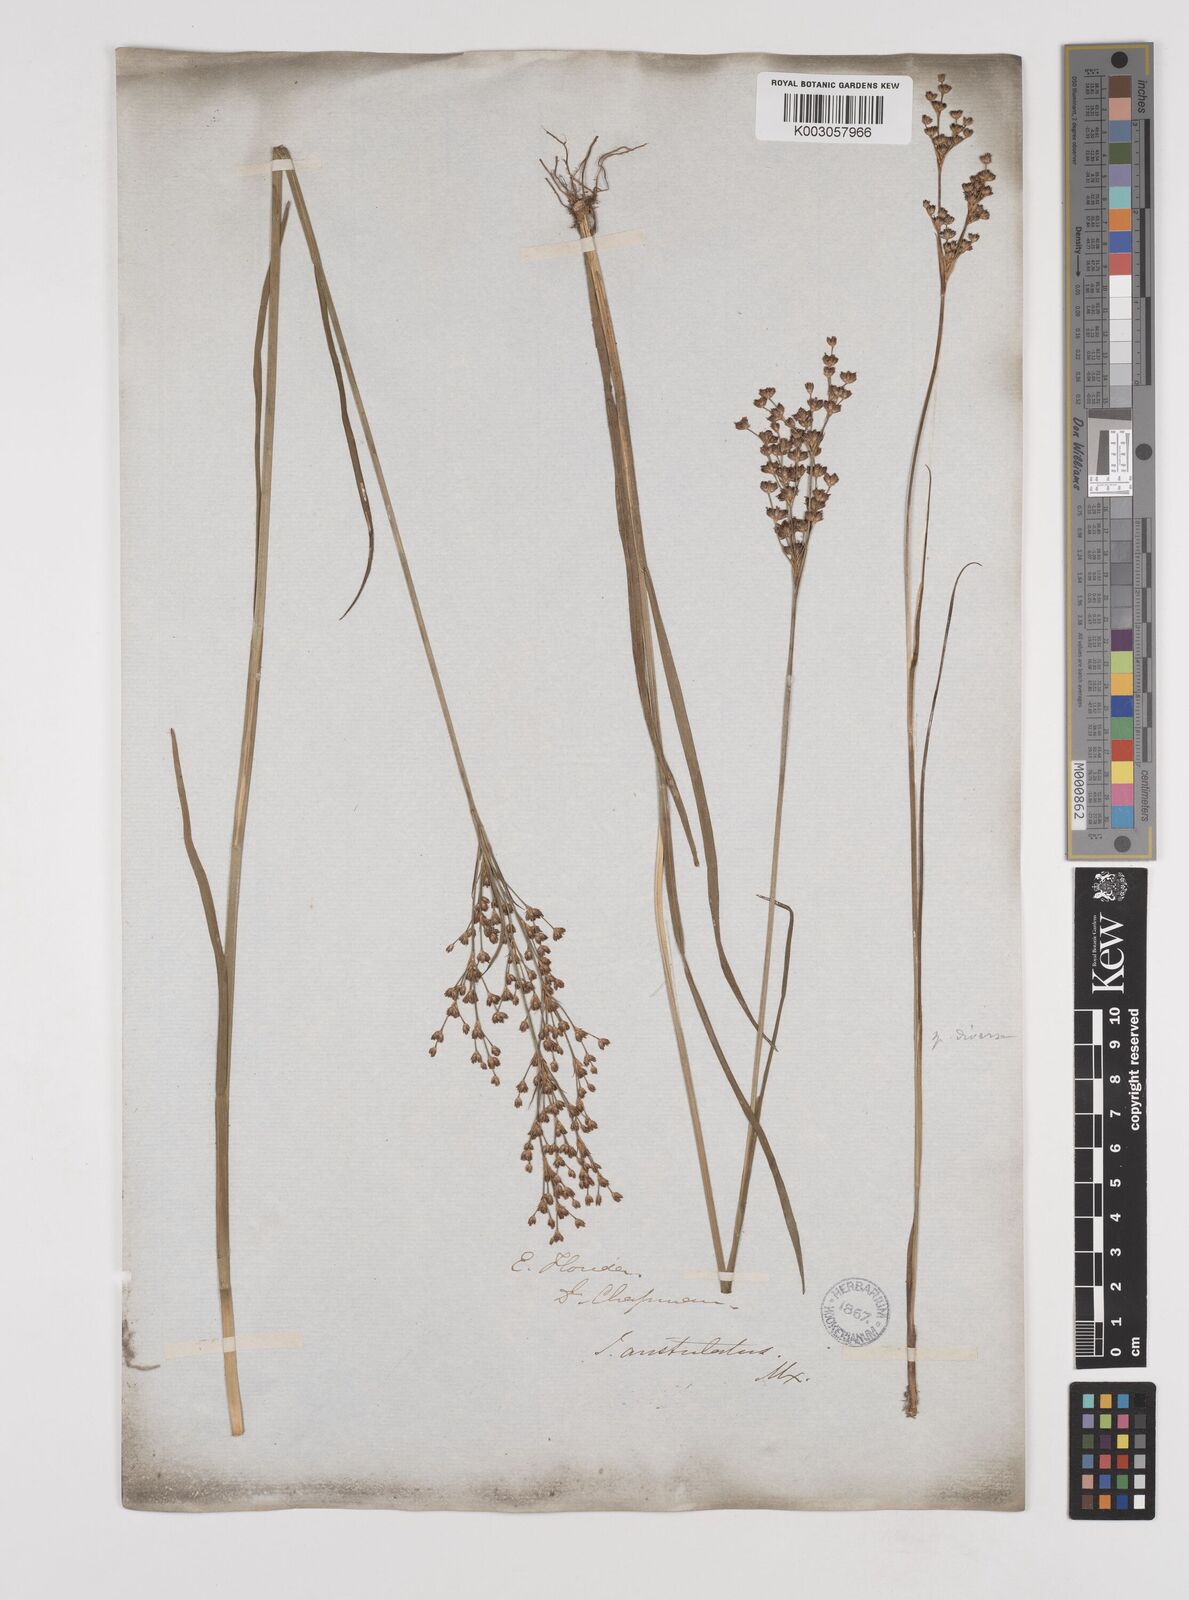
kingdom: Plantae
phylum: Tracheophyta
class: Liliopsida
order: Poales
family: Juncaceae
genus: Juncus
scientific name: Juncus marginatus
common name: Grass-leaf rush
